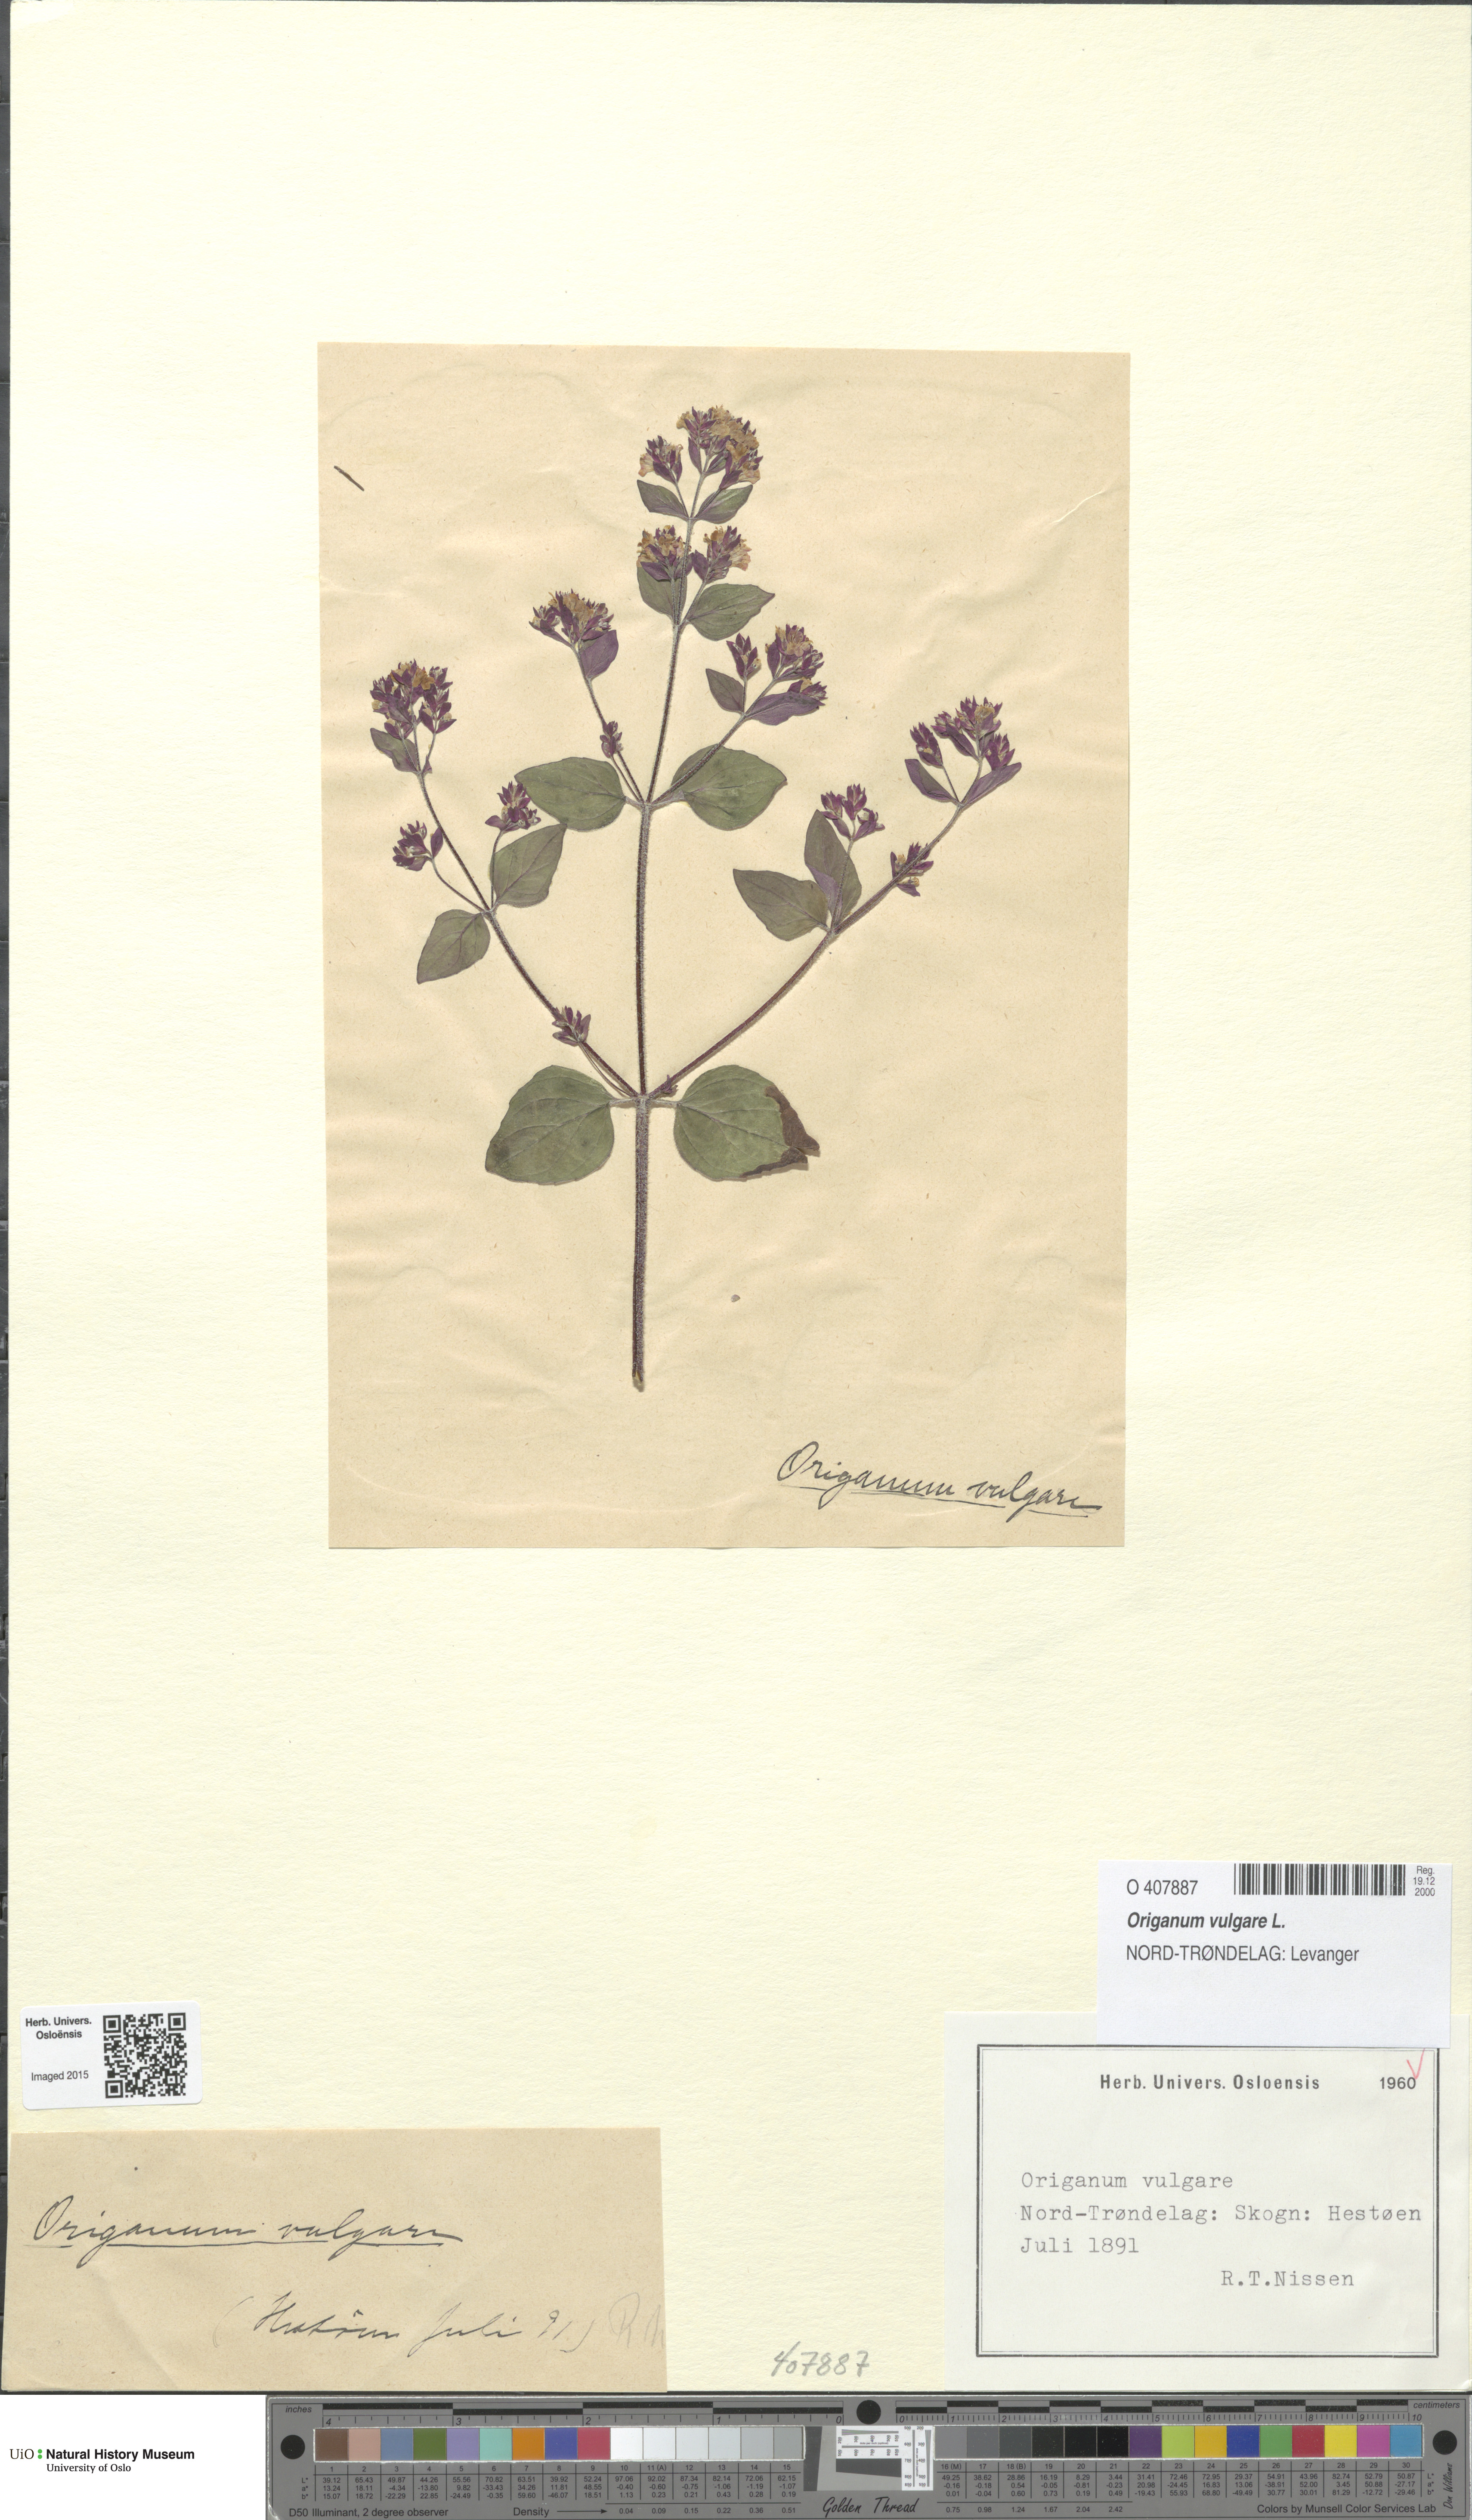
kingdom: Plantae
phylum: Tracheophyta
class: Magnoliopsida
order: Lamiales
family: Lamiaceae
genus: Origanum
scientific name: Origanum vulgare
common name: Wild marjoram
